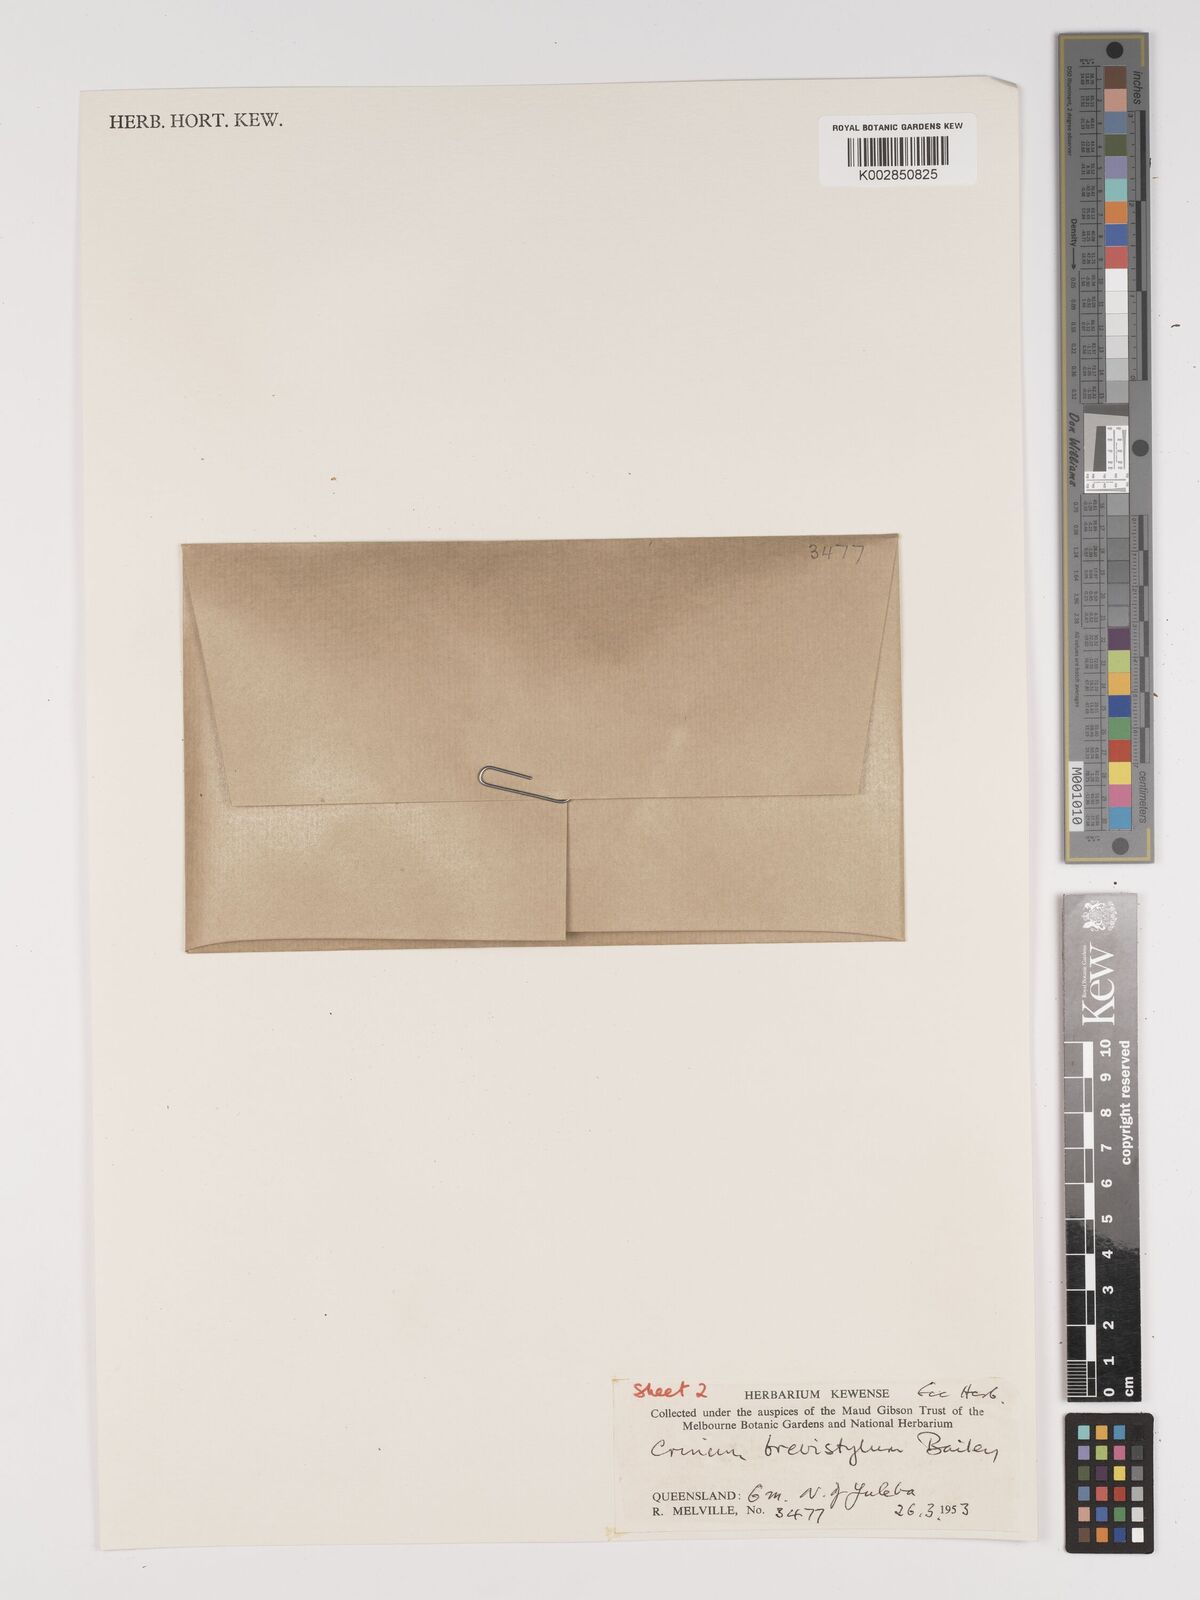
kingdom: Plantae
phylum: Tracheophyta
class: Liliopsida
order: Asparagales
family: Amaryllidaceae
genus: Crinum
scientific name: Crinum venosum
